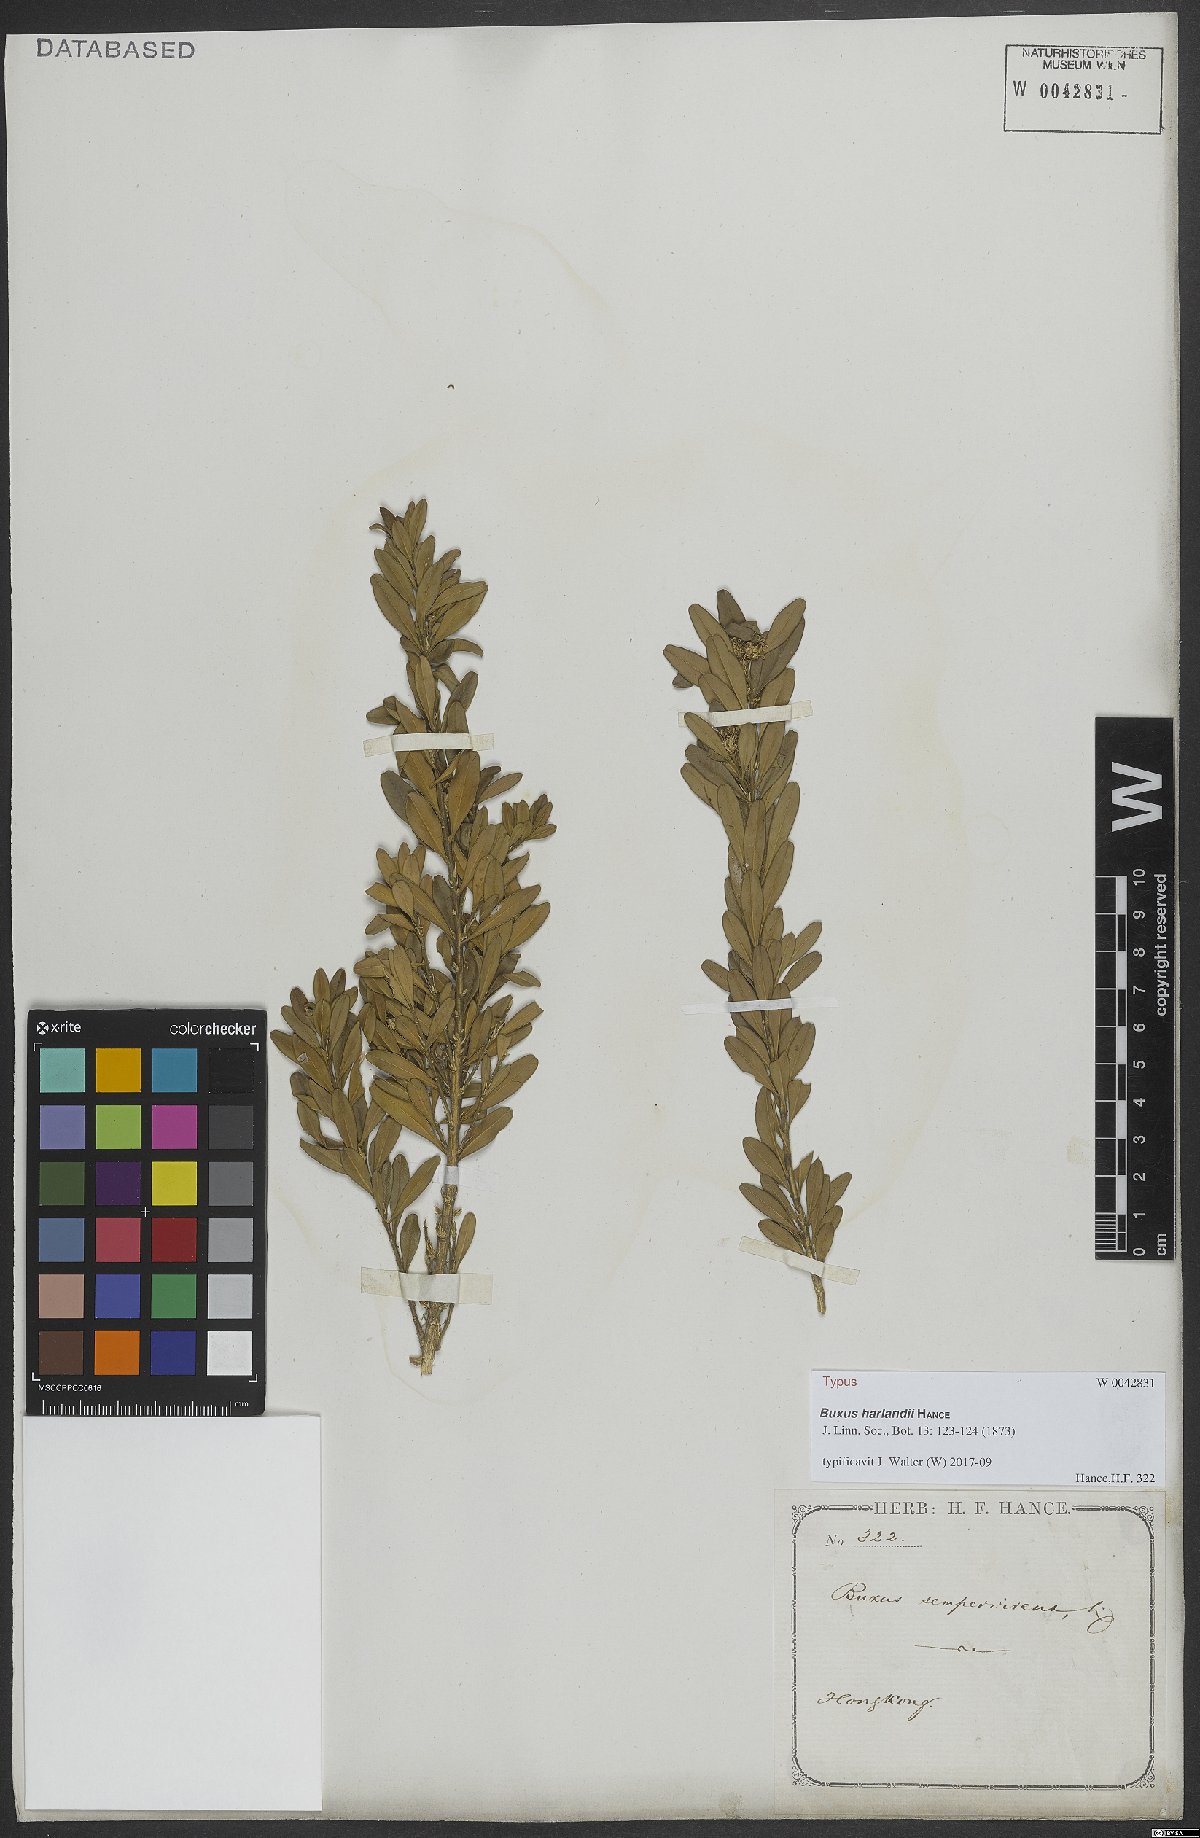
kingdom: Plantae
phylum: Tracheophyta
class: Magnoliopsida
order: Buxales
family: Buxaceae
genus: Buxus
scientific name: Buxus harlandii
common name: Harland's boxwood
